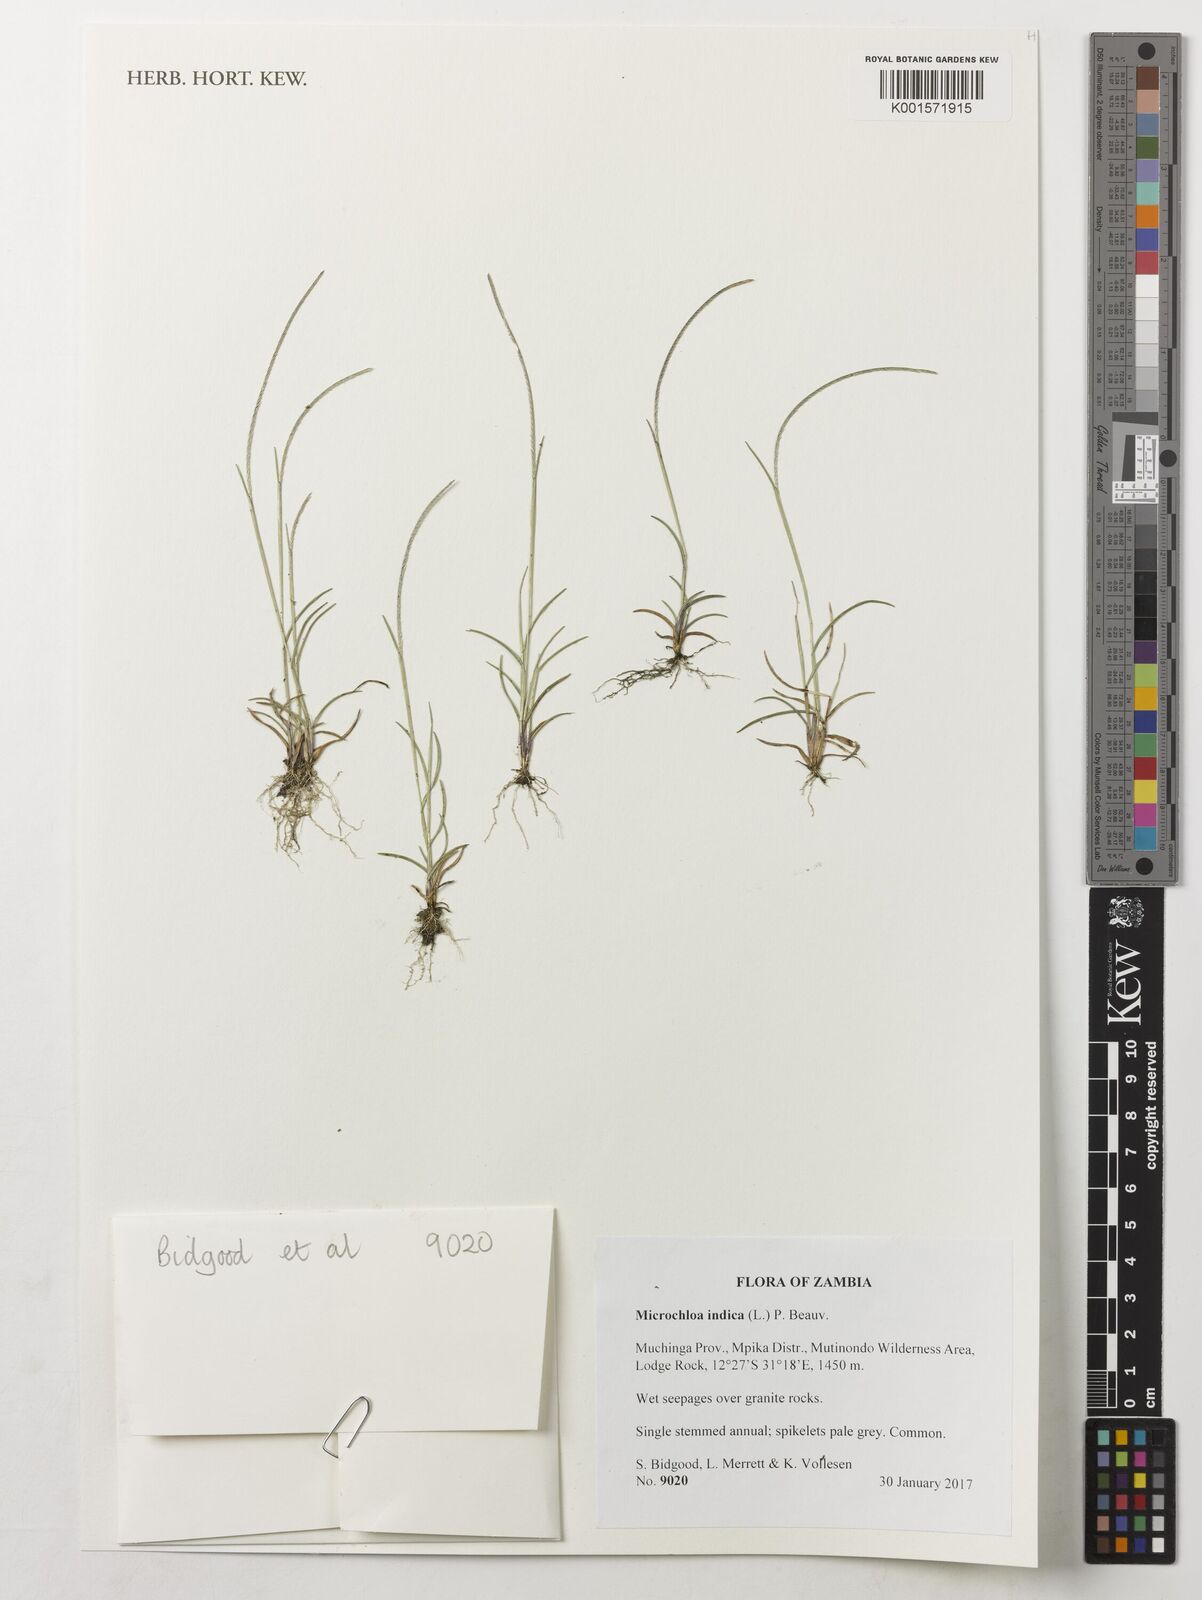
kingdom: Plantae
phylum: Tracheophyta
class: Liliopsida
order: Poales
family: Poaceae
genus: Microchloa
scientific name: Microchloa indica
